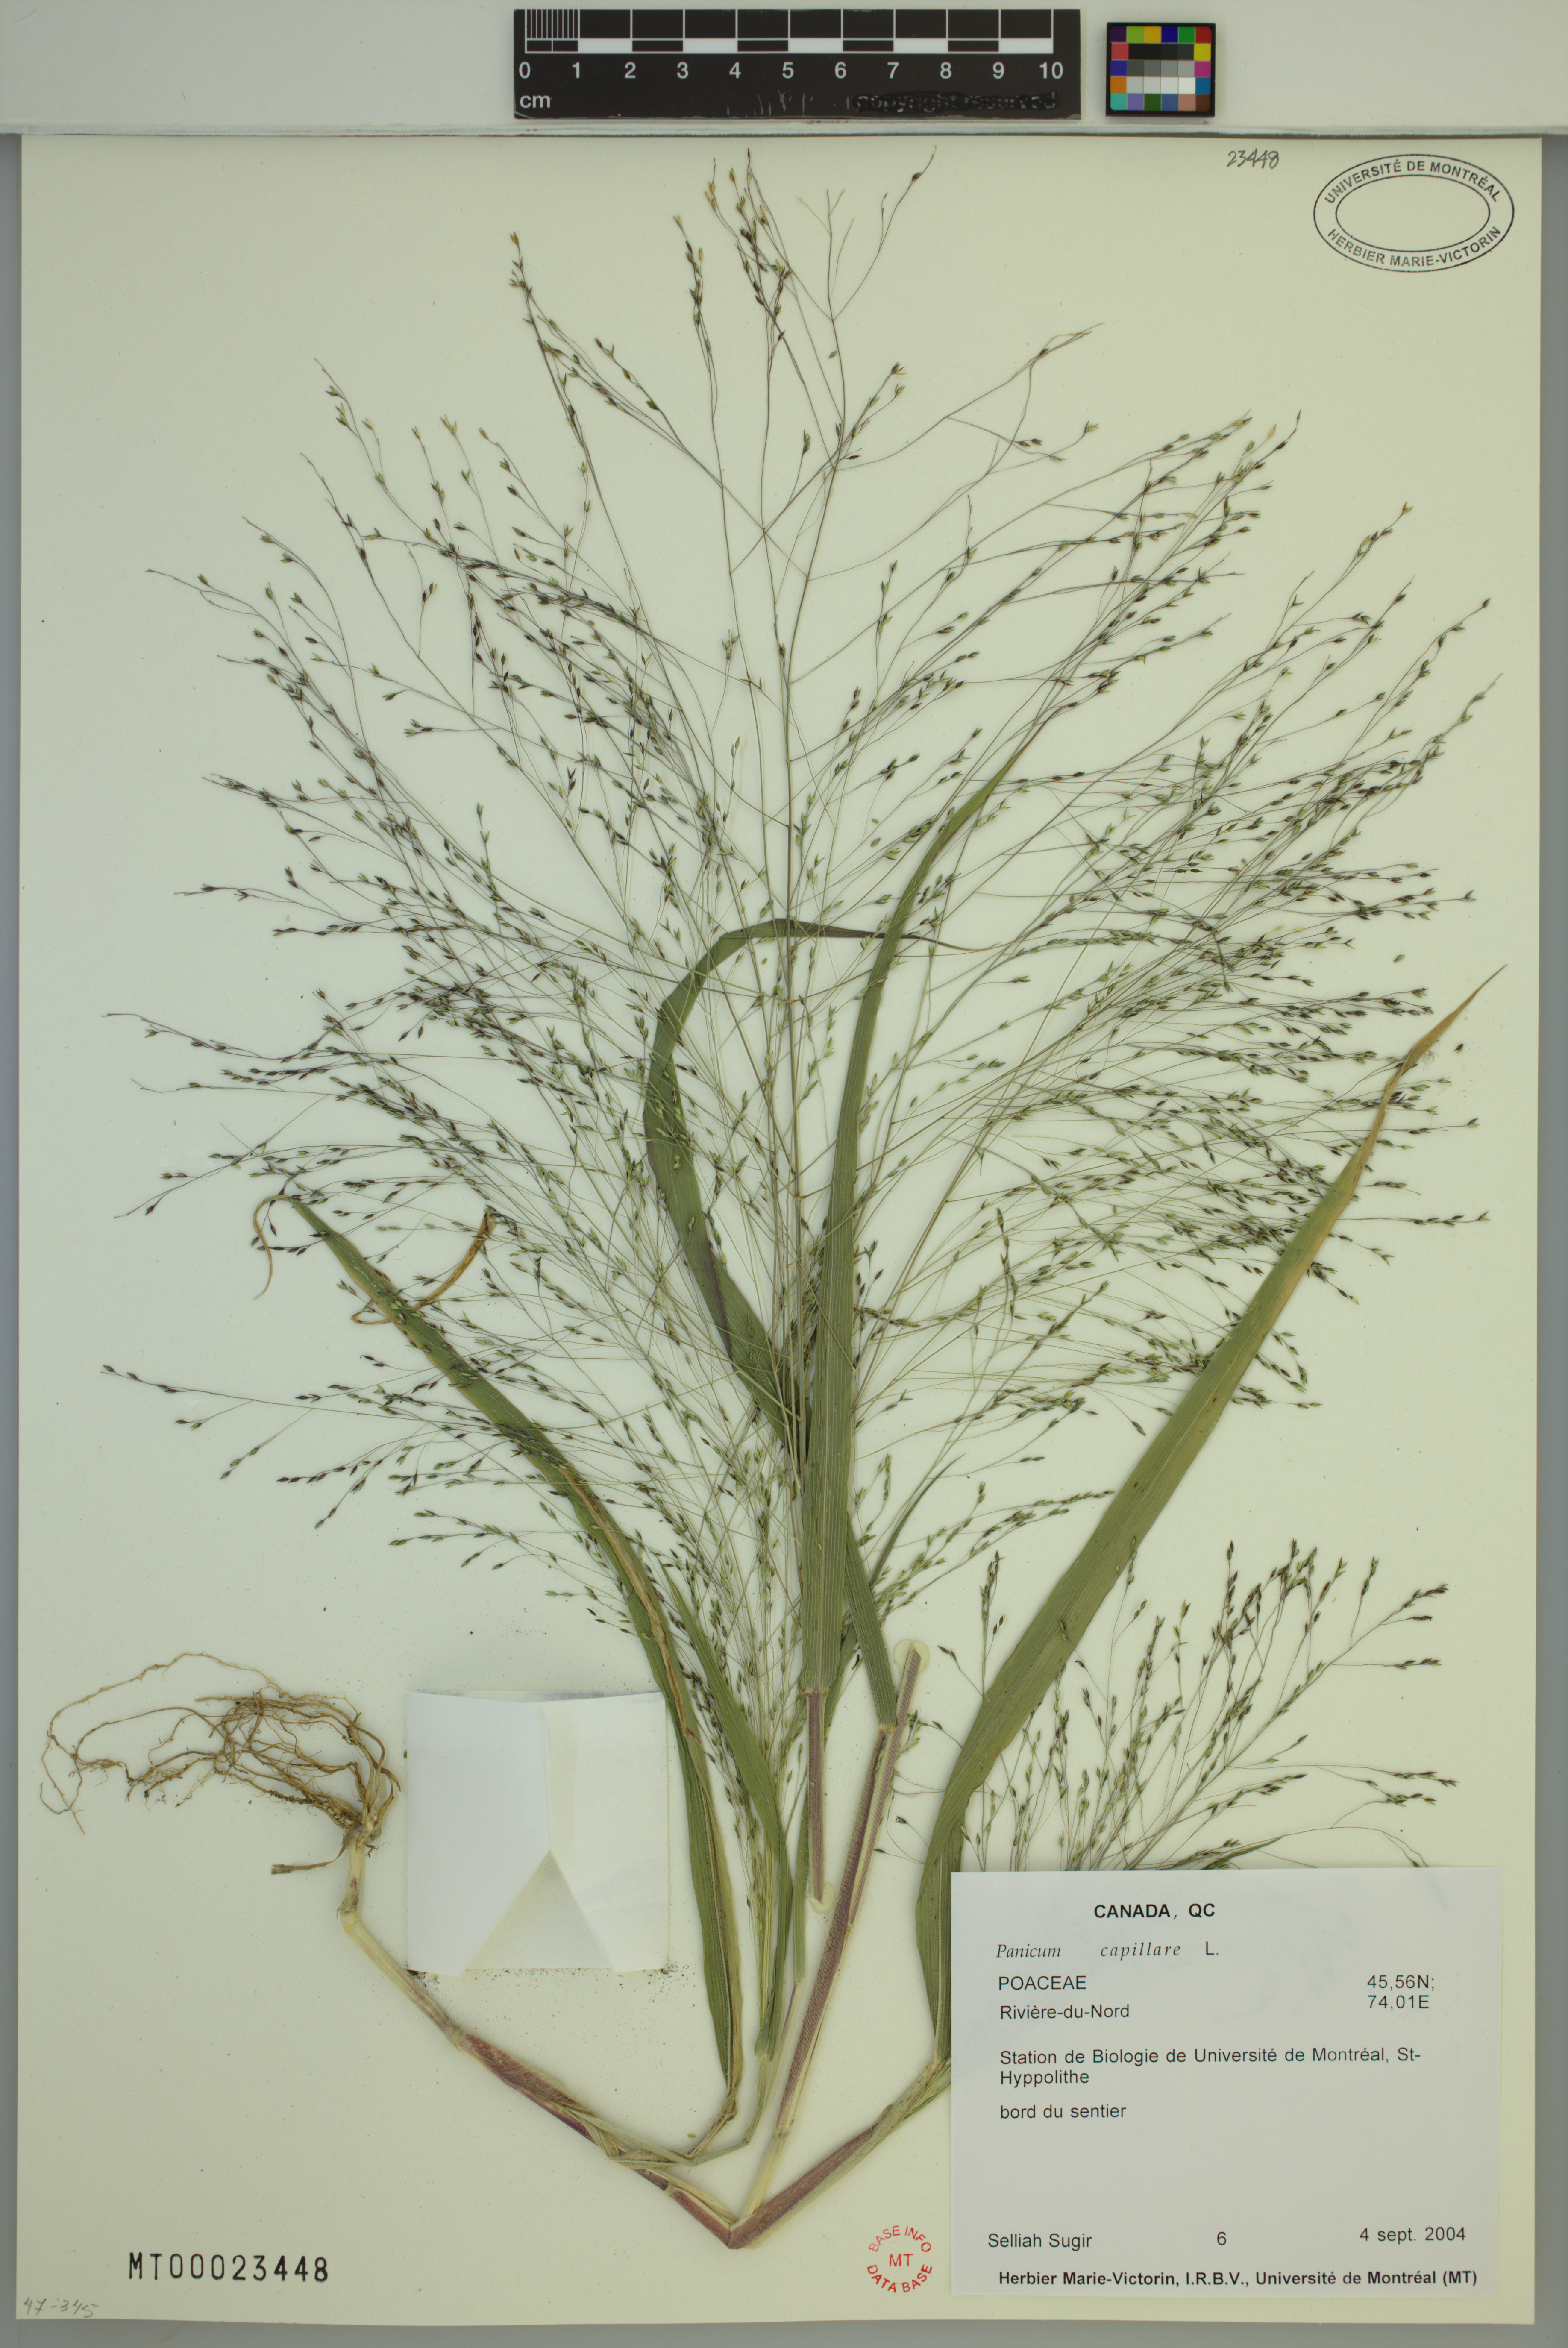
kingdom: Plantae
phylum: Tracheophyta
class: Liliopsida
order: Poales
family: Poaceae
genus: Panicum
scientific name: Panicum capillare
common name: Witch-grass
